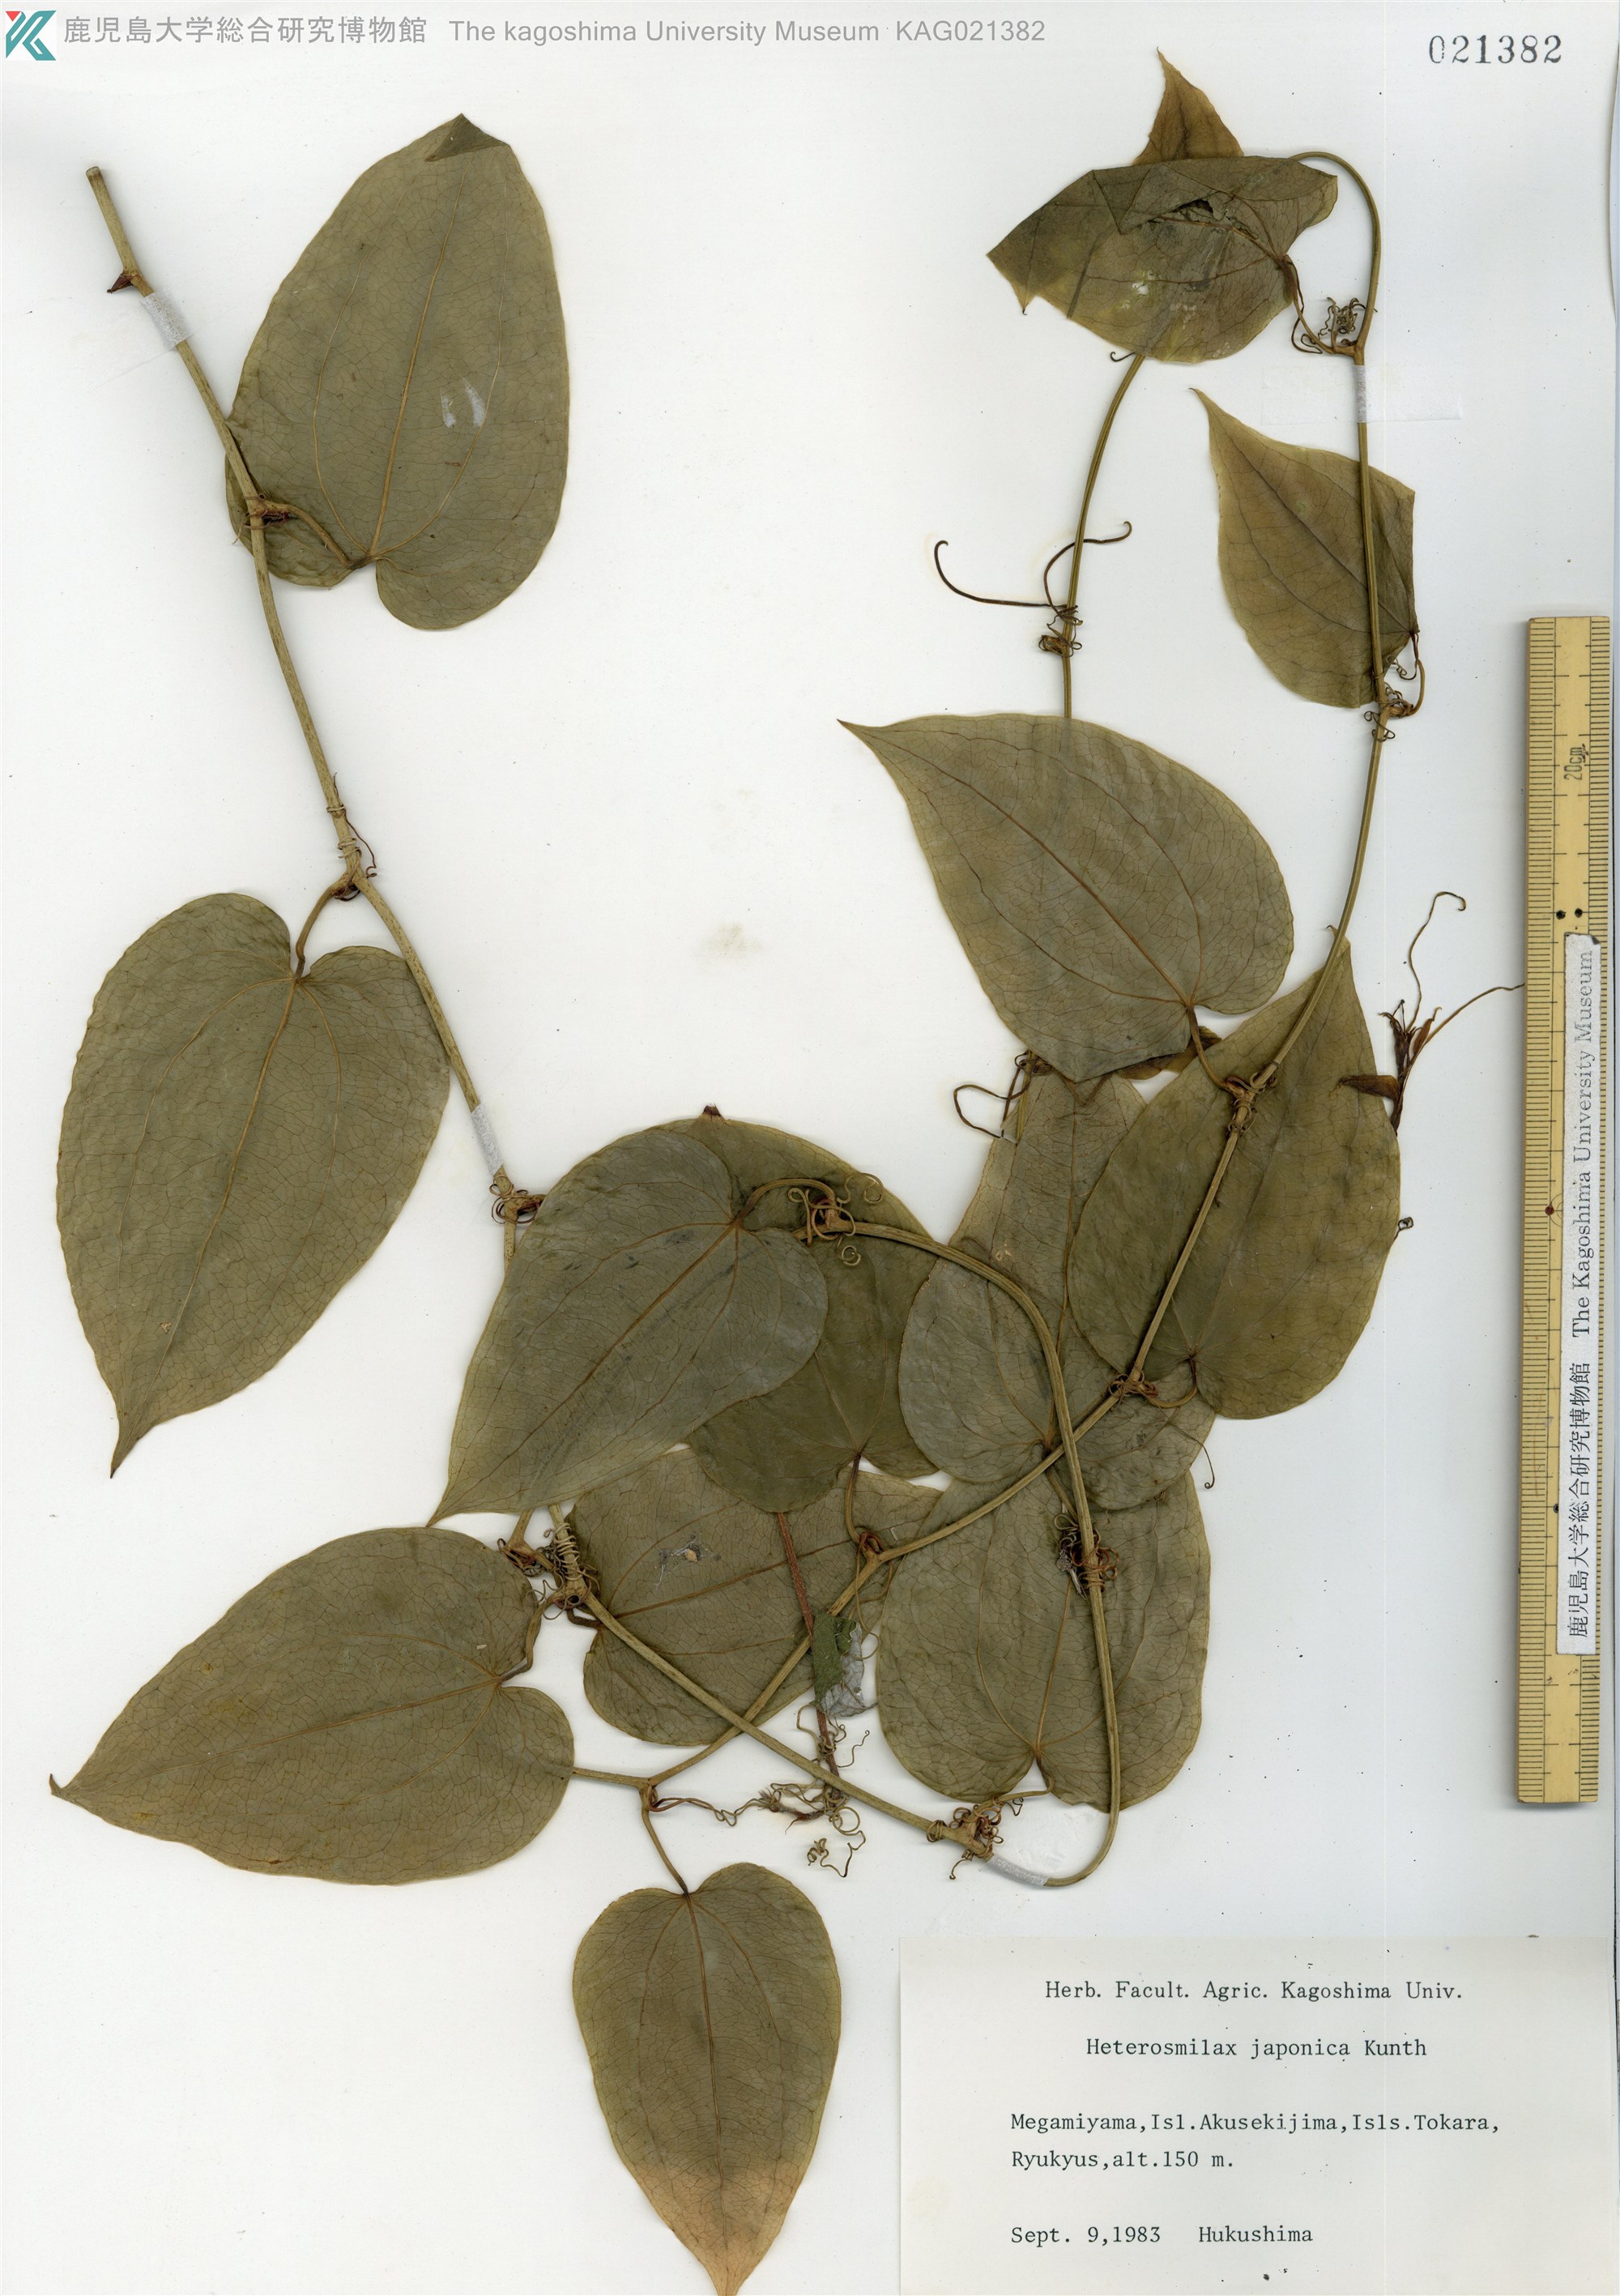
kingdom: Plantae
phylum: Tracheophyta
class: Liliopsida
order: Liliales
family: Smilacaceae
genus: Smilax
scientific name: Smilax insularis
